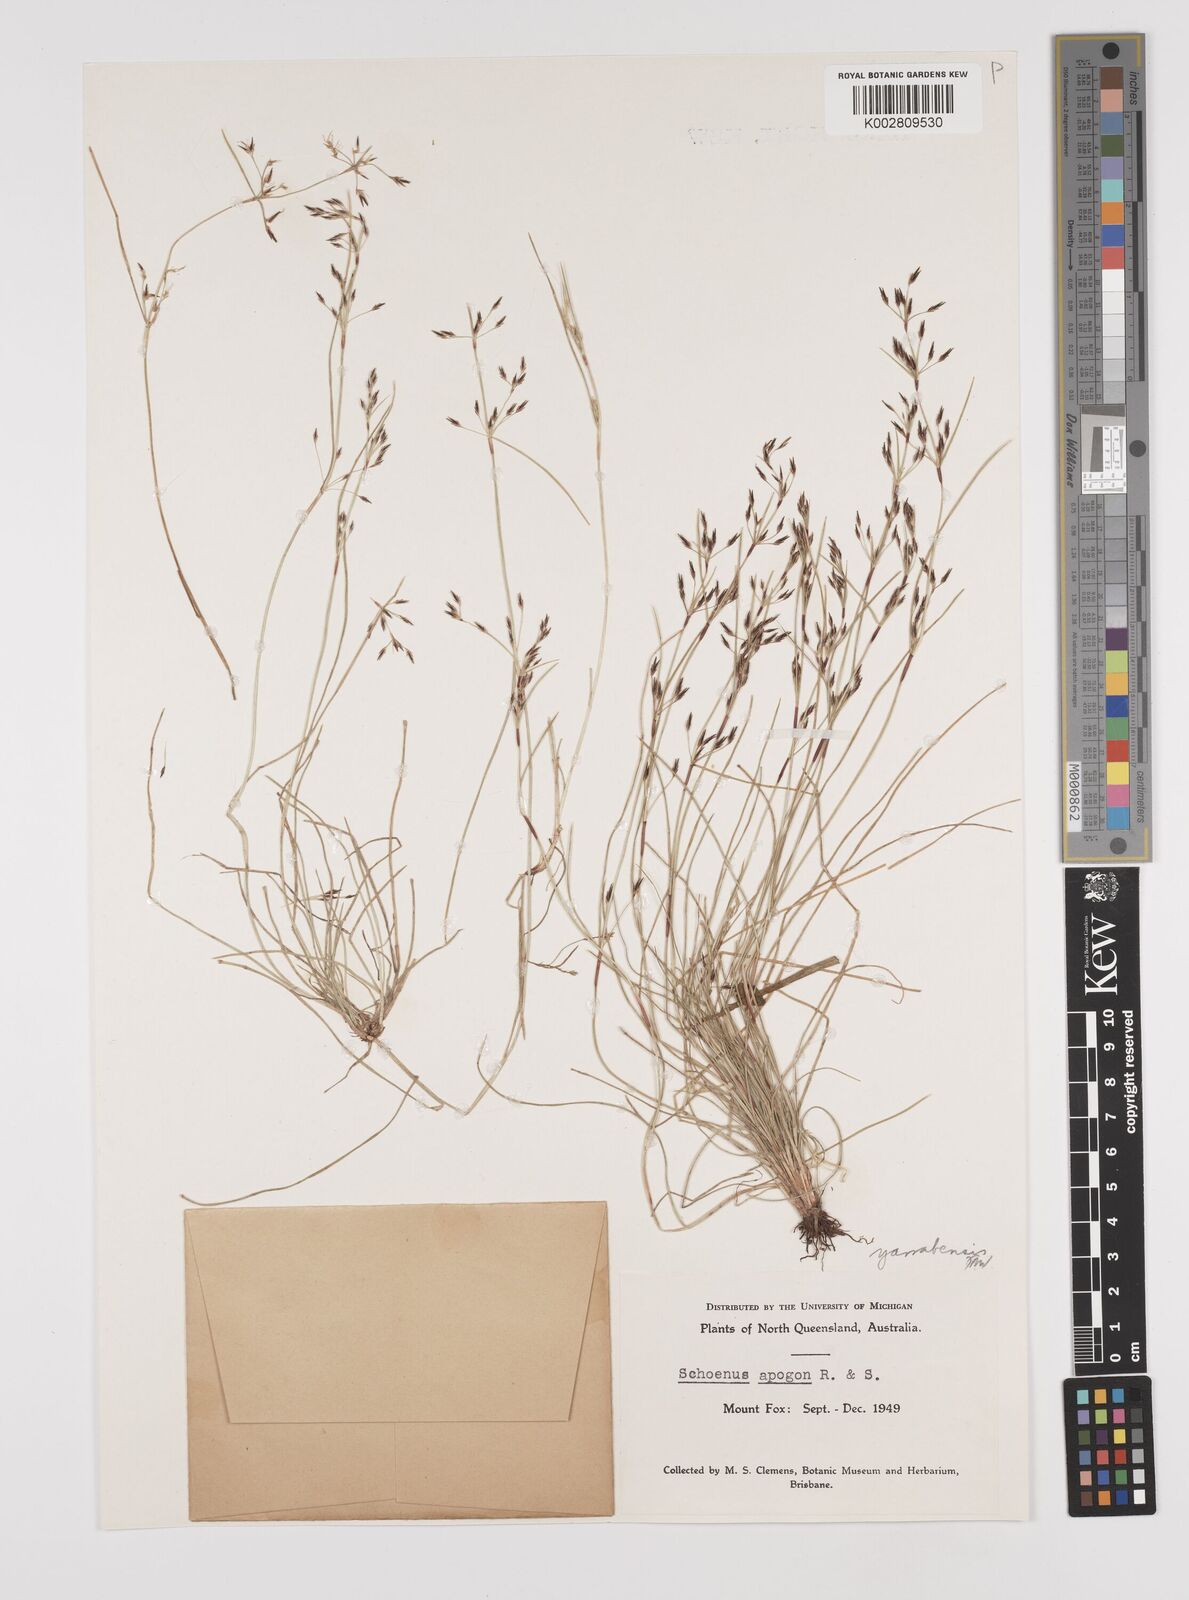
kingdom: Plantae
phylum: Tracheophyta
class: Liliopsida
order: Poales
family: Cyperaceae
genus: Schoenus
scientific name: Schoenus yarrabensis
